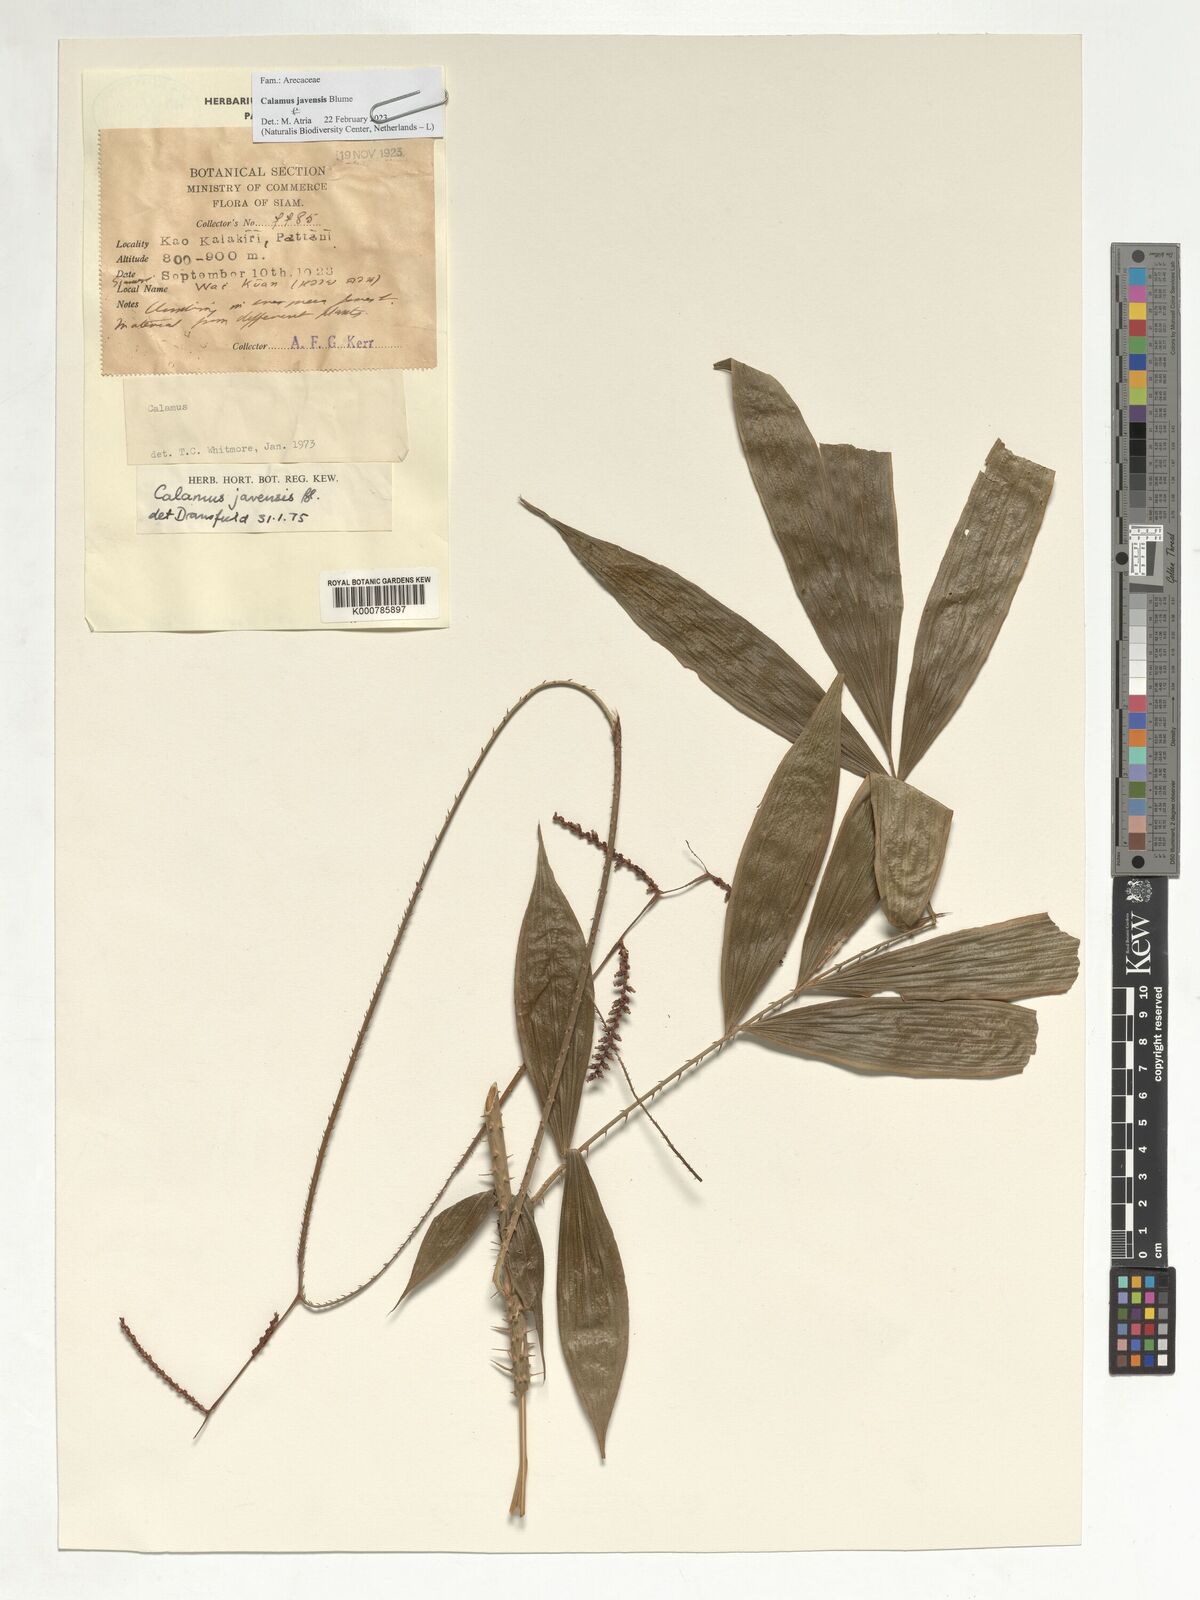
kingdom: Plantae
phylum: Tracheophyta
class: Liliopsida
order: Arecales
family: Arecaceae
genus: Calamus
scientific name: Calamus javensis
